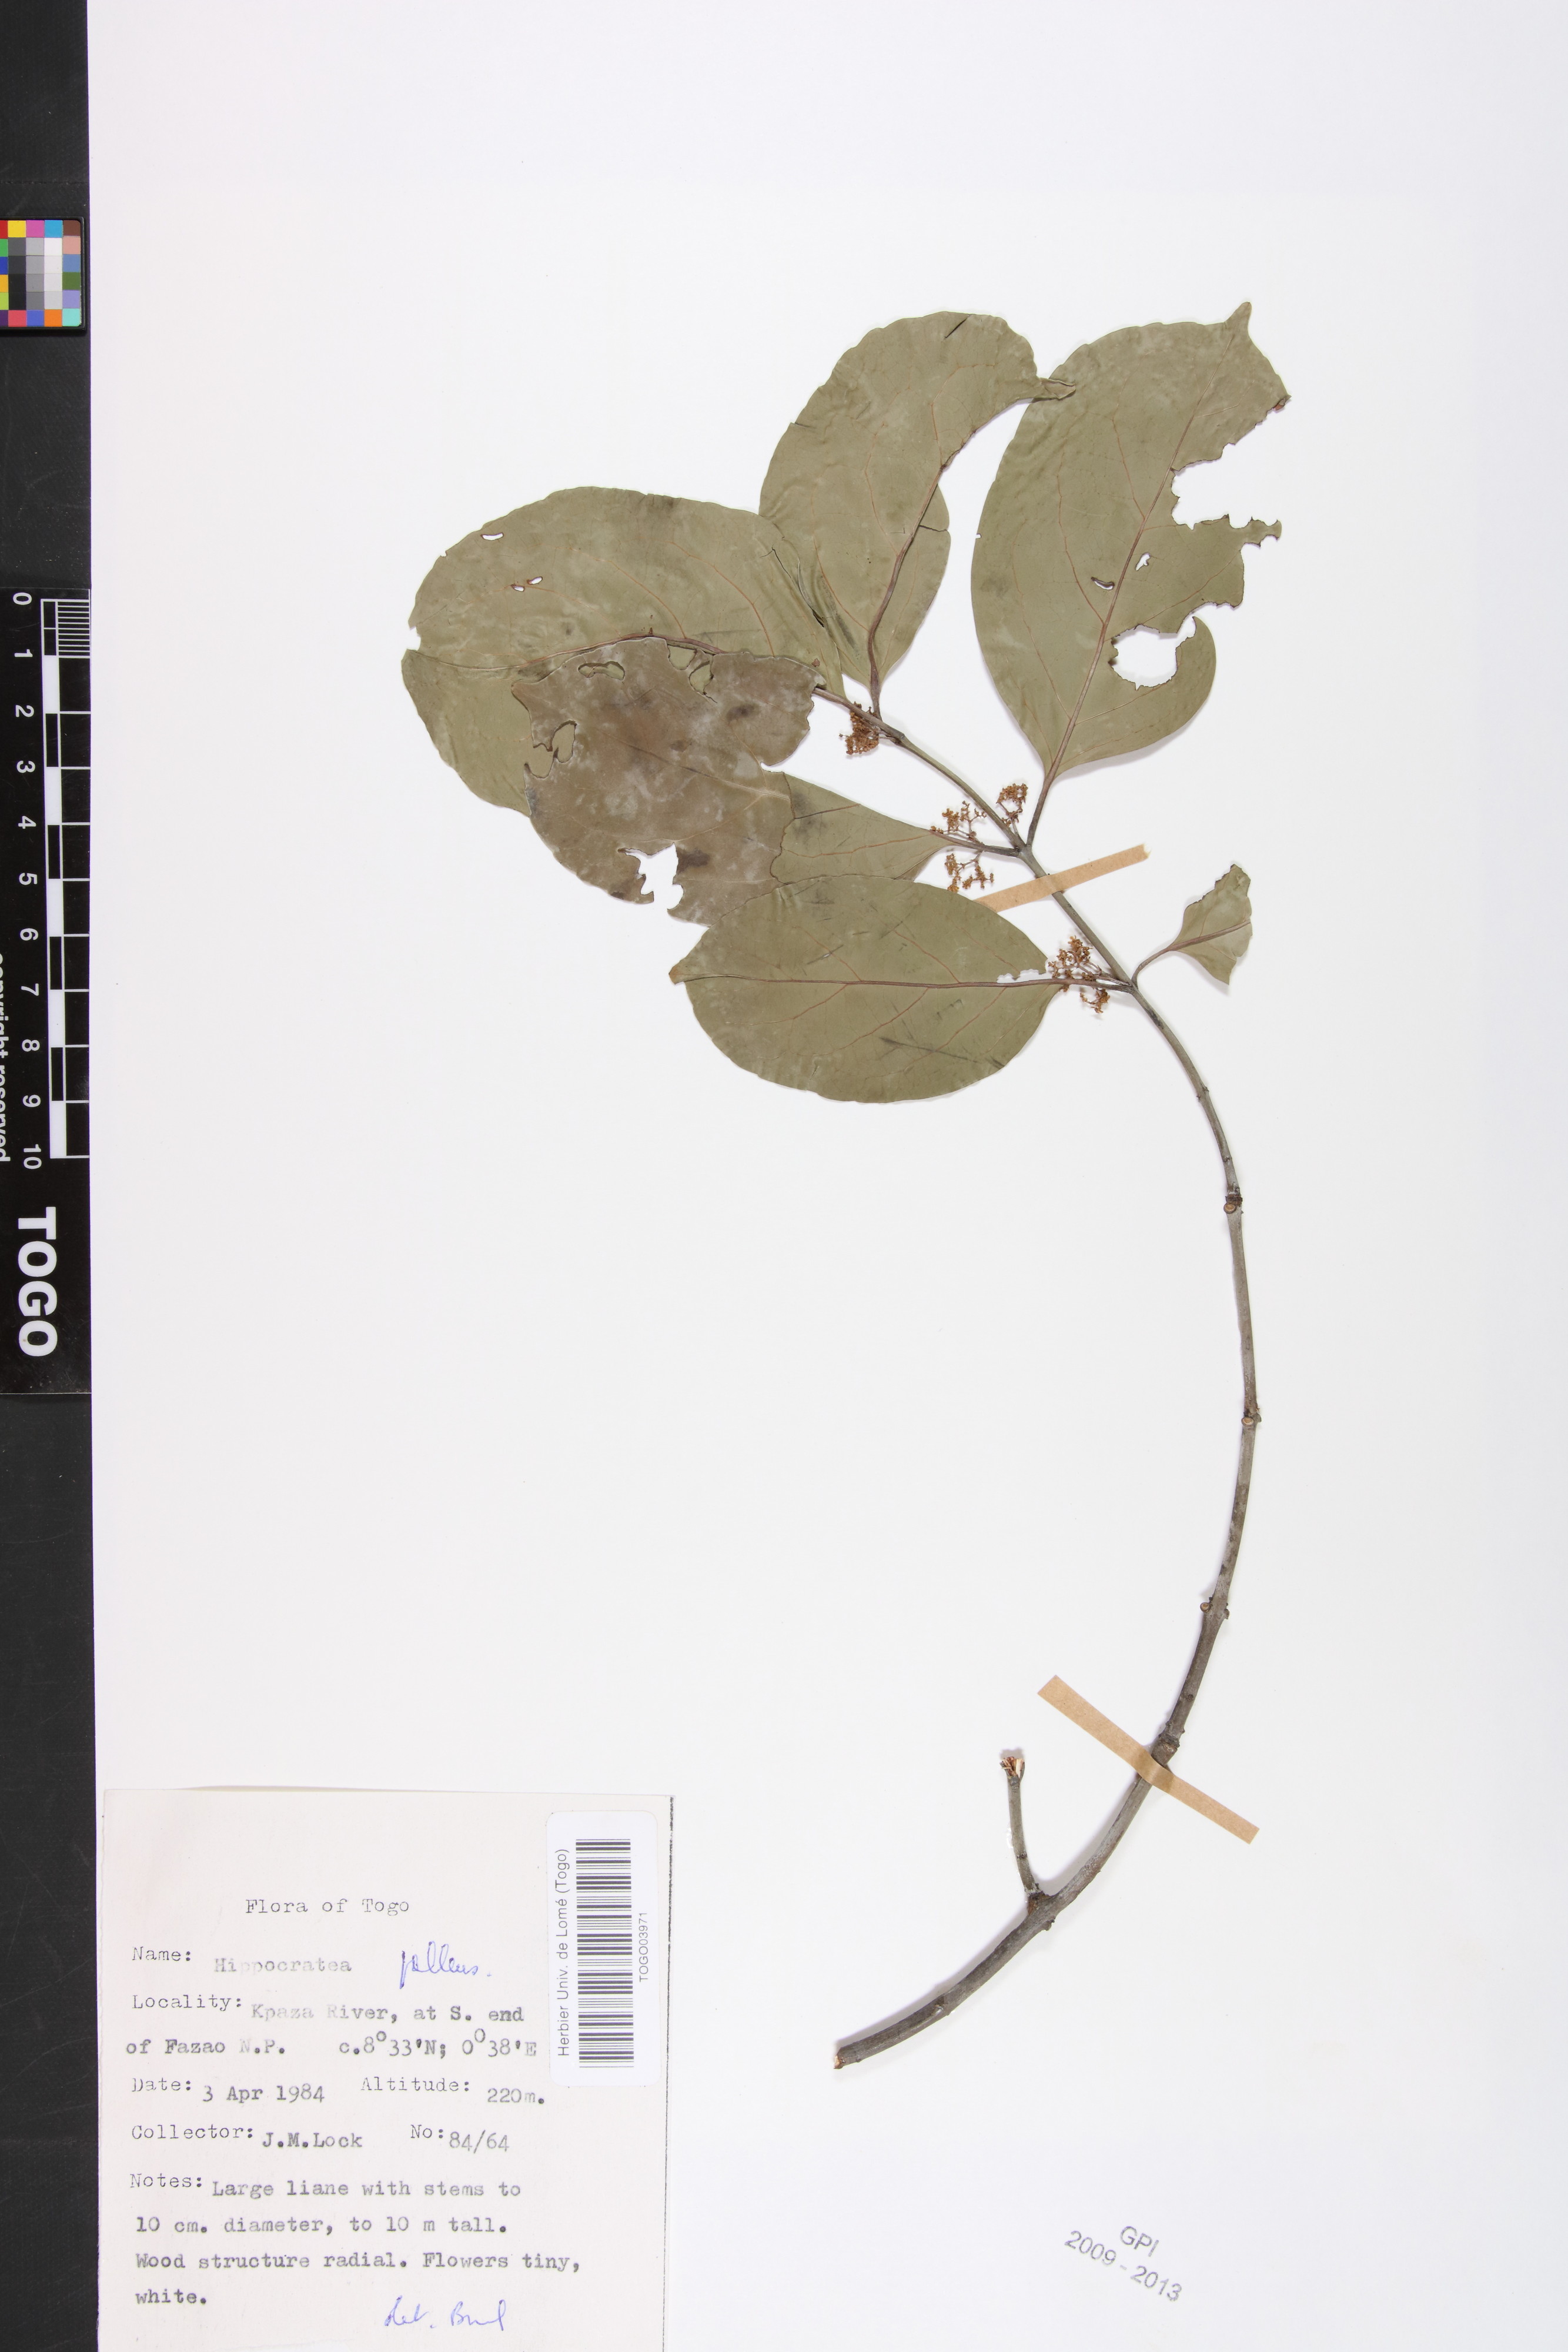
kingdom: Plantae
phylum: Tracheophyta
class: Magnoliopsida
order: Celastrales
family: Celastraceae
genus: Apodostigma
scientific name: Apodostigma pallens
